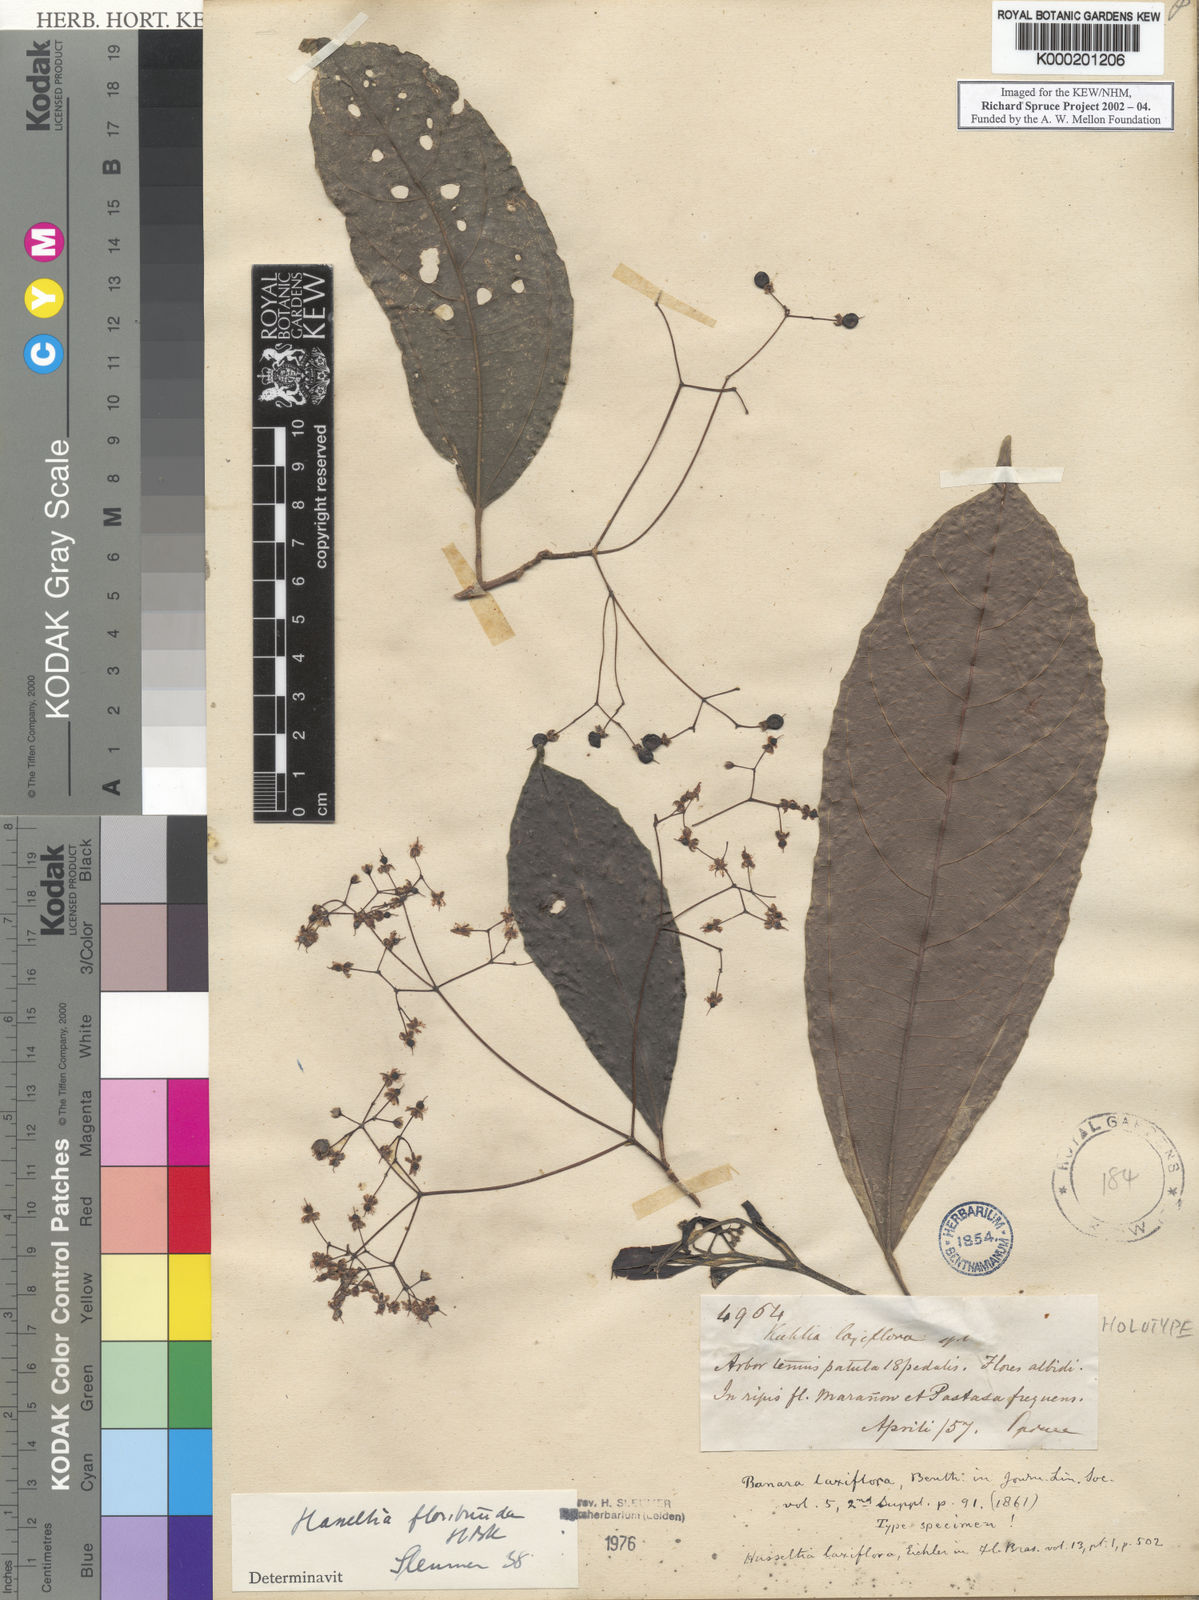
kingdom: Plantae
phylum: Tracheophyta
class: Magnoliopsida
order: Malpighiales
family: Salicaceae
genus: Hasseltia
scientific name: Hasseltia floribunda
